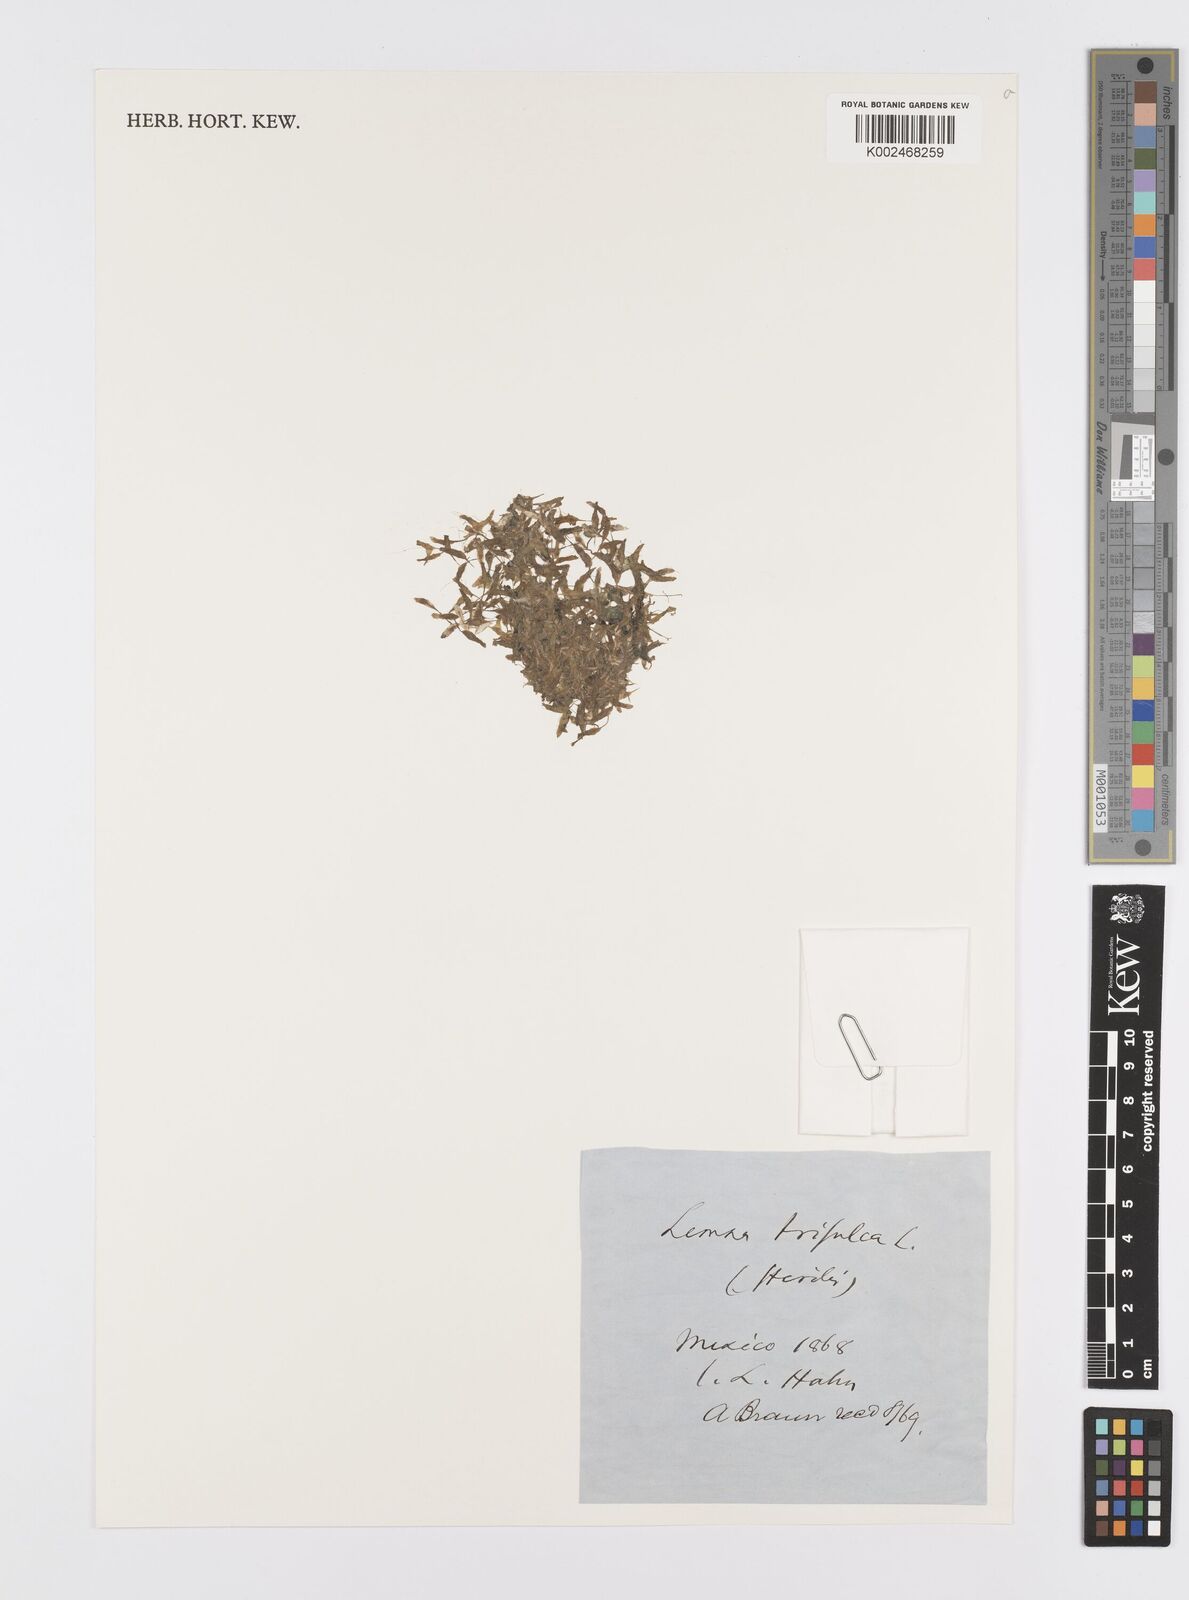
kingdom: Plantae
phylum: Tracheophyta
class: Liliopsida
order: Alismatales
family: Araceae
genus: Lemna
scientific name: Lemna trisulca
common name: Ivy-leaved duckweed
